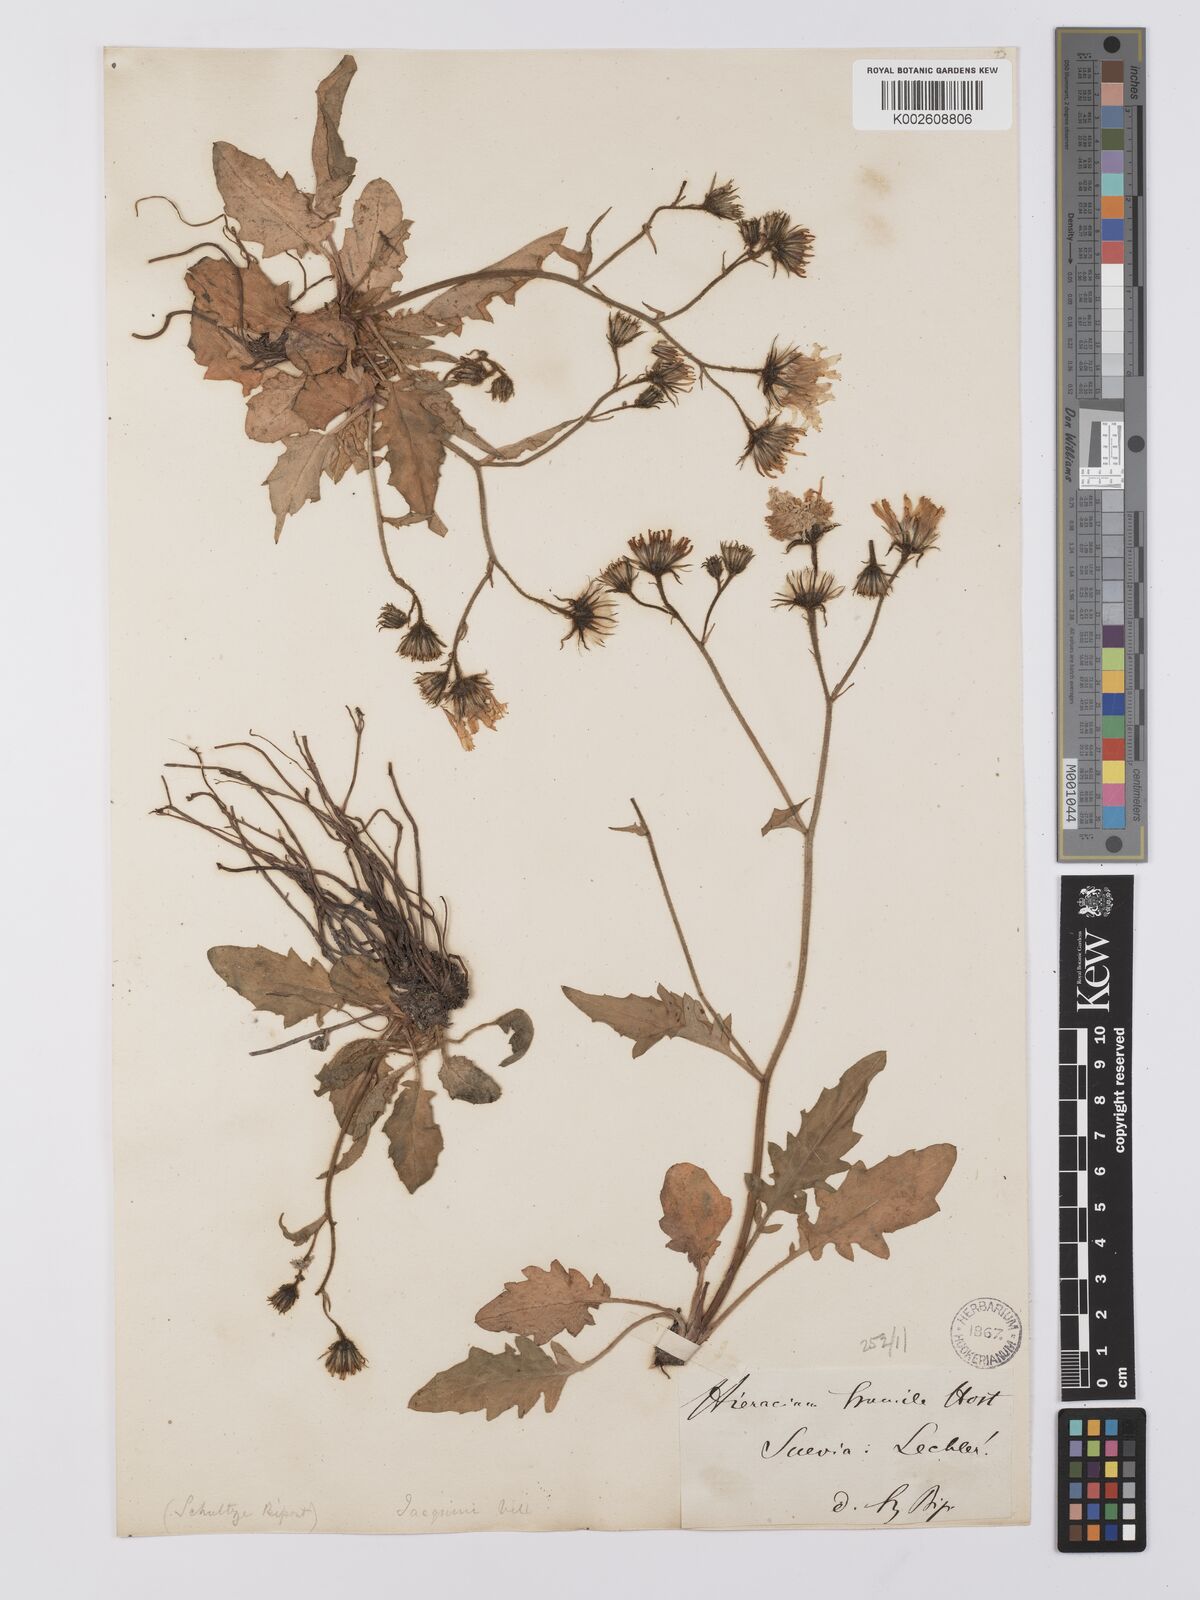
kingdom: Plantae
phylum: Tracheophyta
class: Magnoliopsida
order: Asterales
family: Asteraceae
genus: Hieracium
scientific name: Hieracium humile
